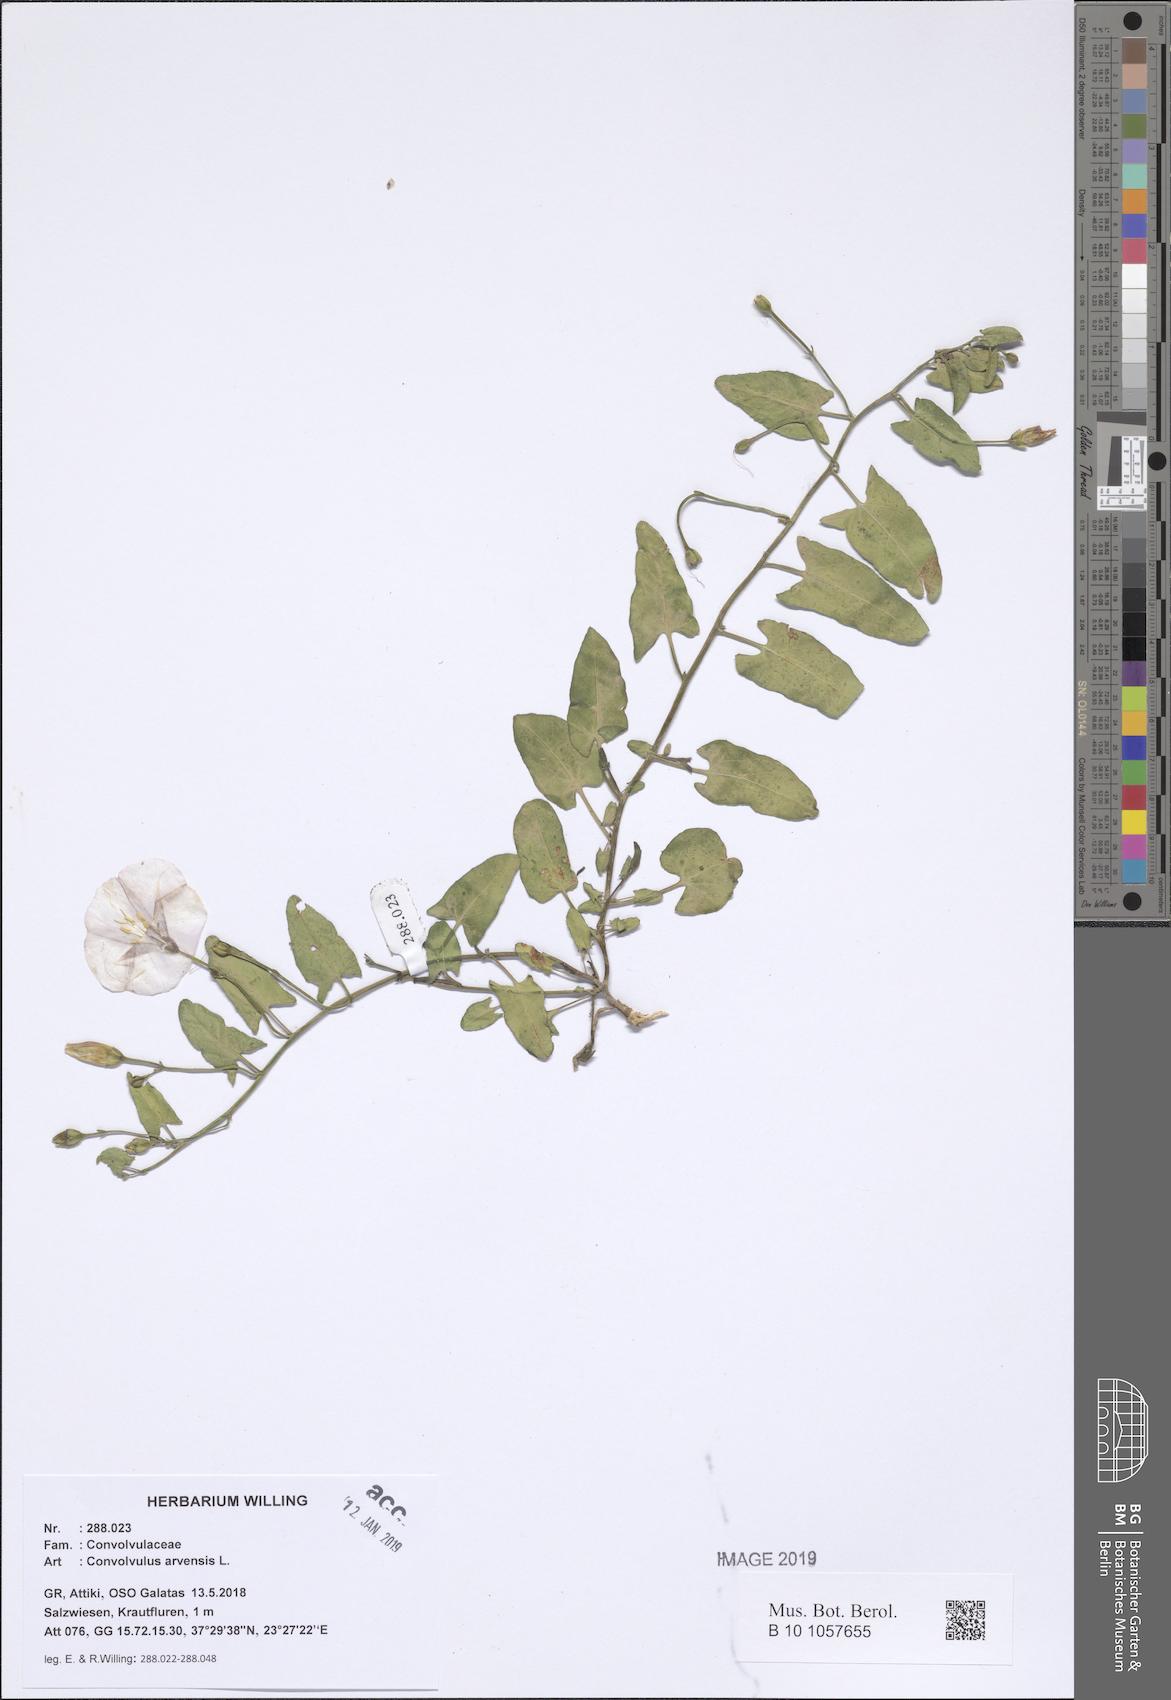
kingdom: Plantae
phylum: Tracheophyta
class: Magnoliopsida
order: Solanales
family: Convolvulaceae
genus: Convolvulus
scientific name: Convolvulus arvensis
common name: Field bindweed
